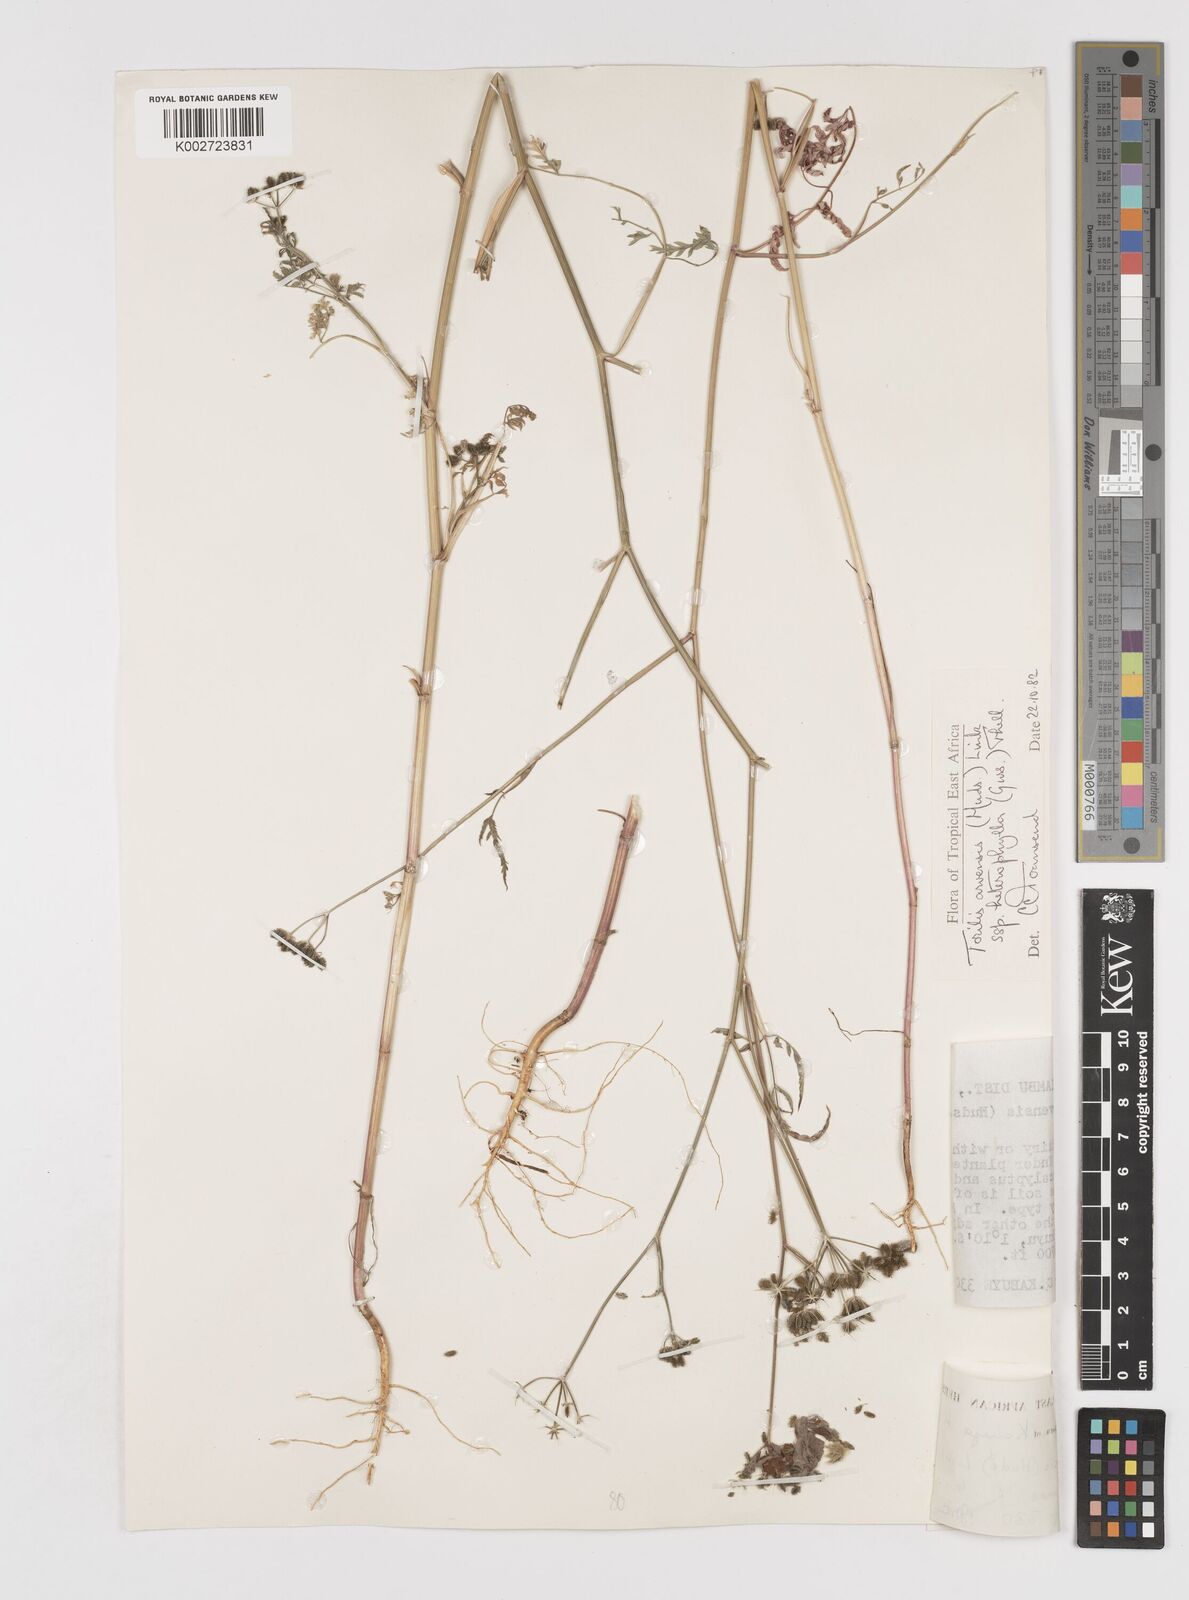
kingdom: Plantae
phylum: Tracheophyta
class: Magnoliopsida
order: Apiales
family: Apiaceae
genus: Torilis
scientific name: Torilis arvensis
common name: Spreading hedge-parsley
